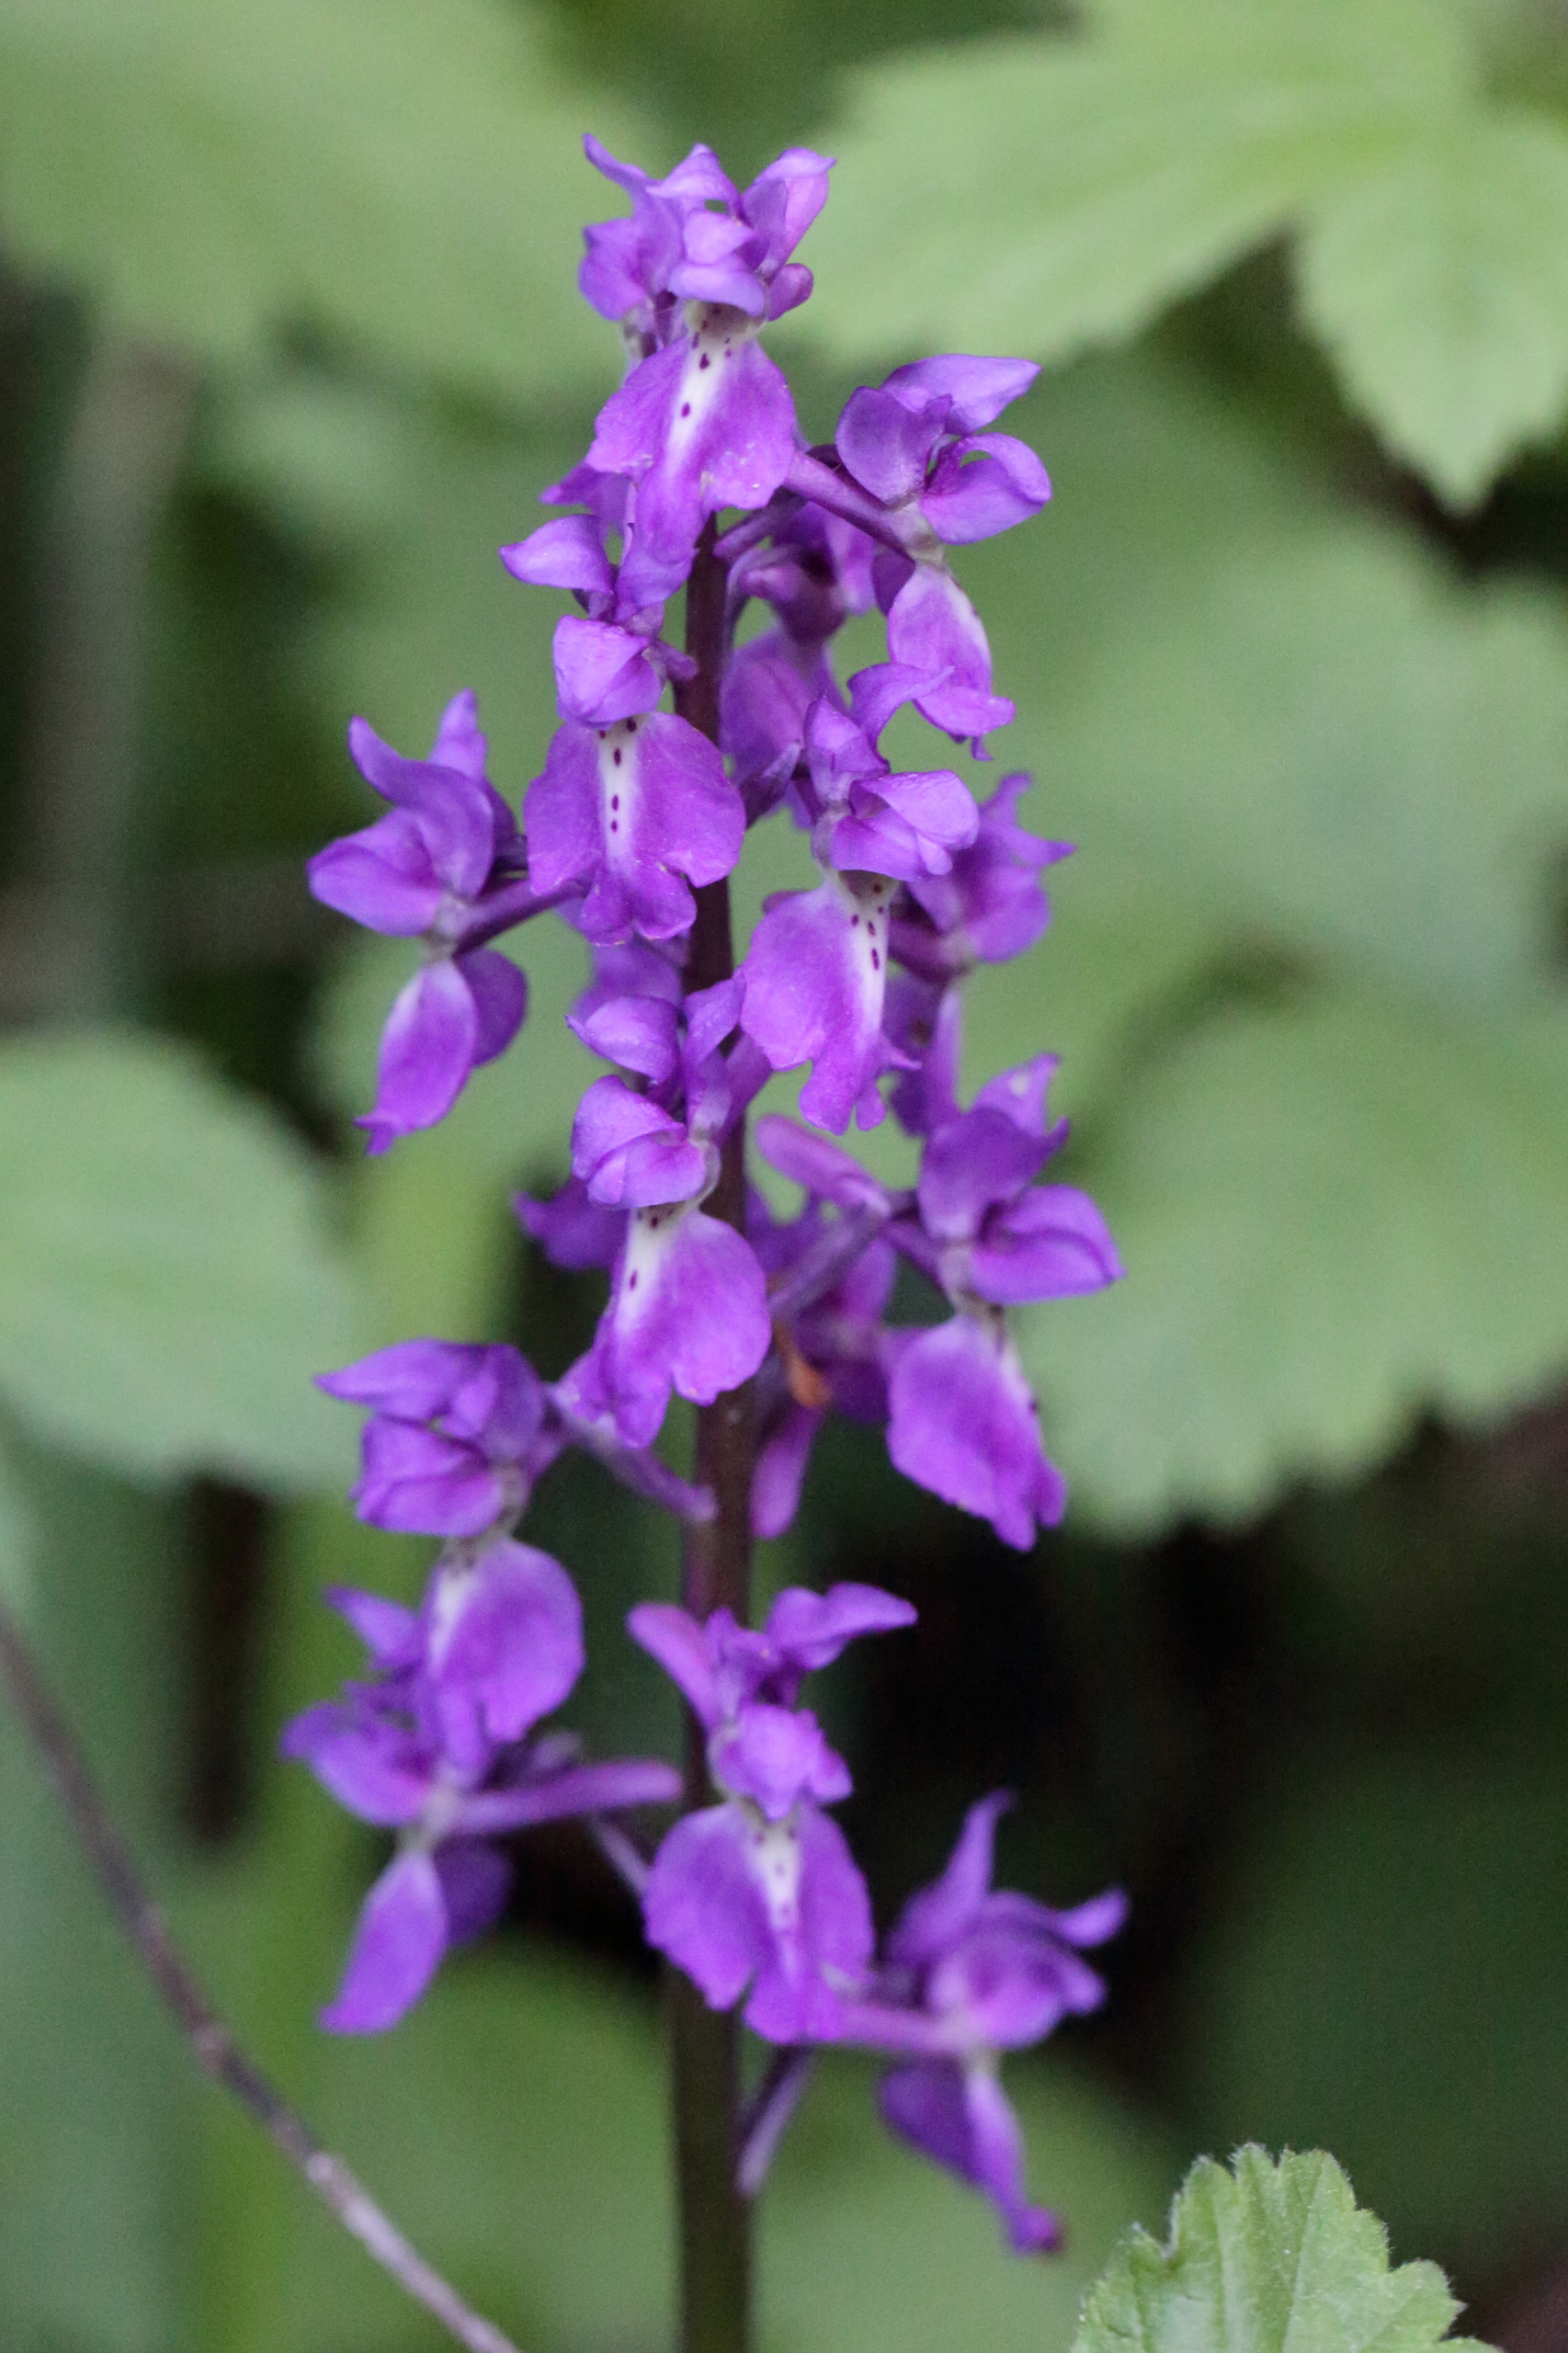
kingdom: Plantae
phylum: Tracheophyta
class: Liliopsida
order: Asparagales
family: Orchidaceae
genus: Orchis
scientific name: Orchis mascula
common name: Tyndakset gøgeurt
